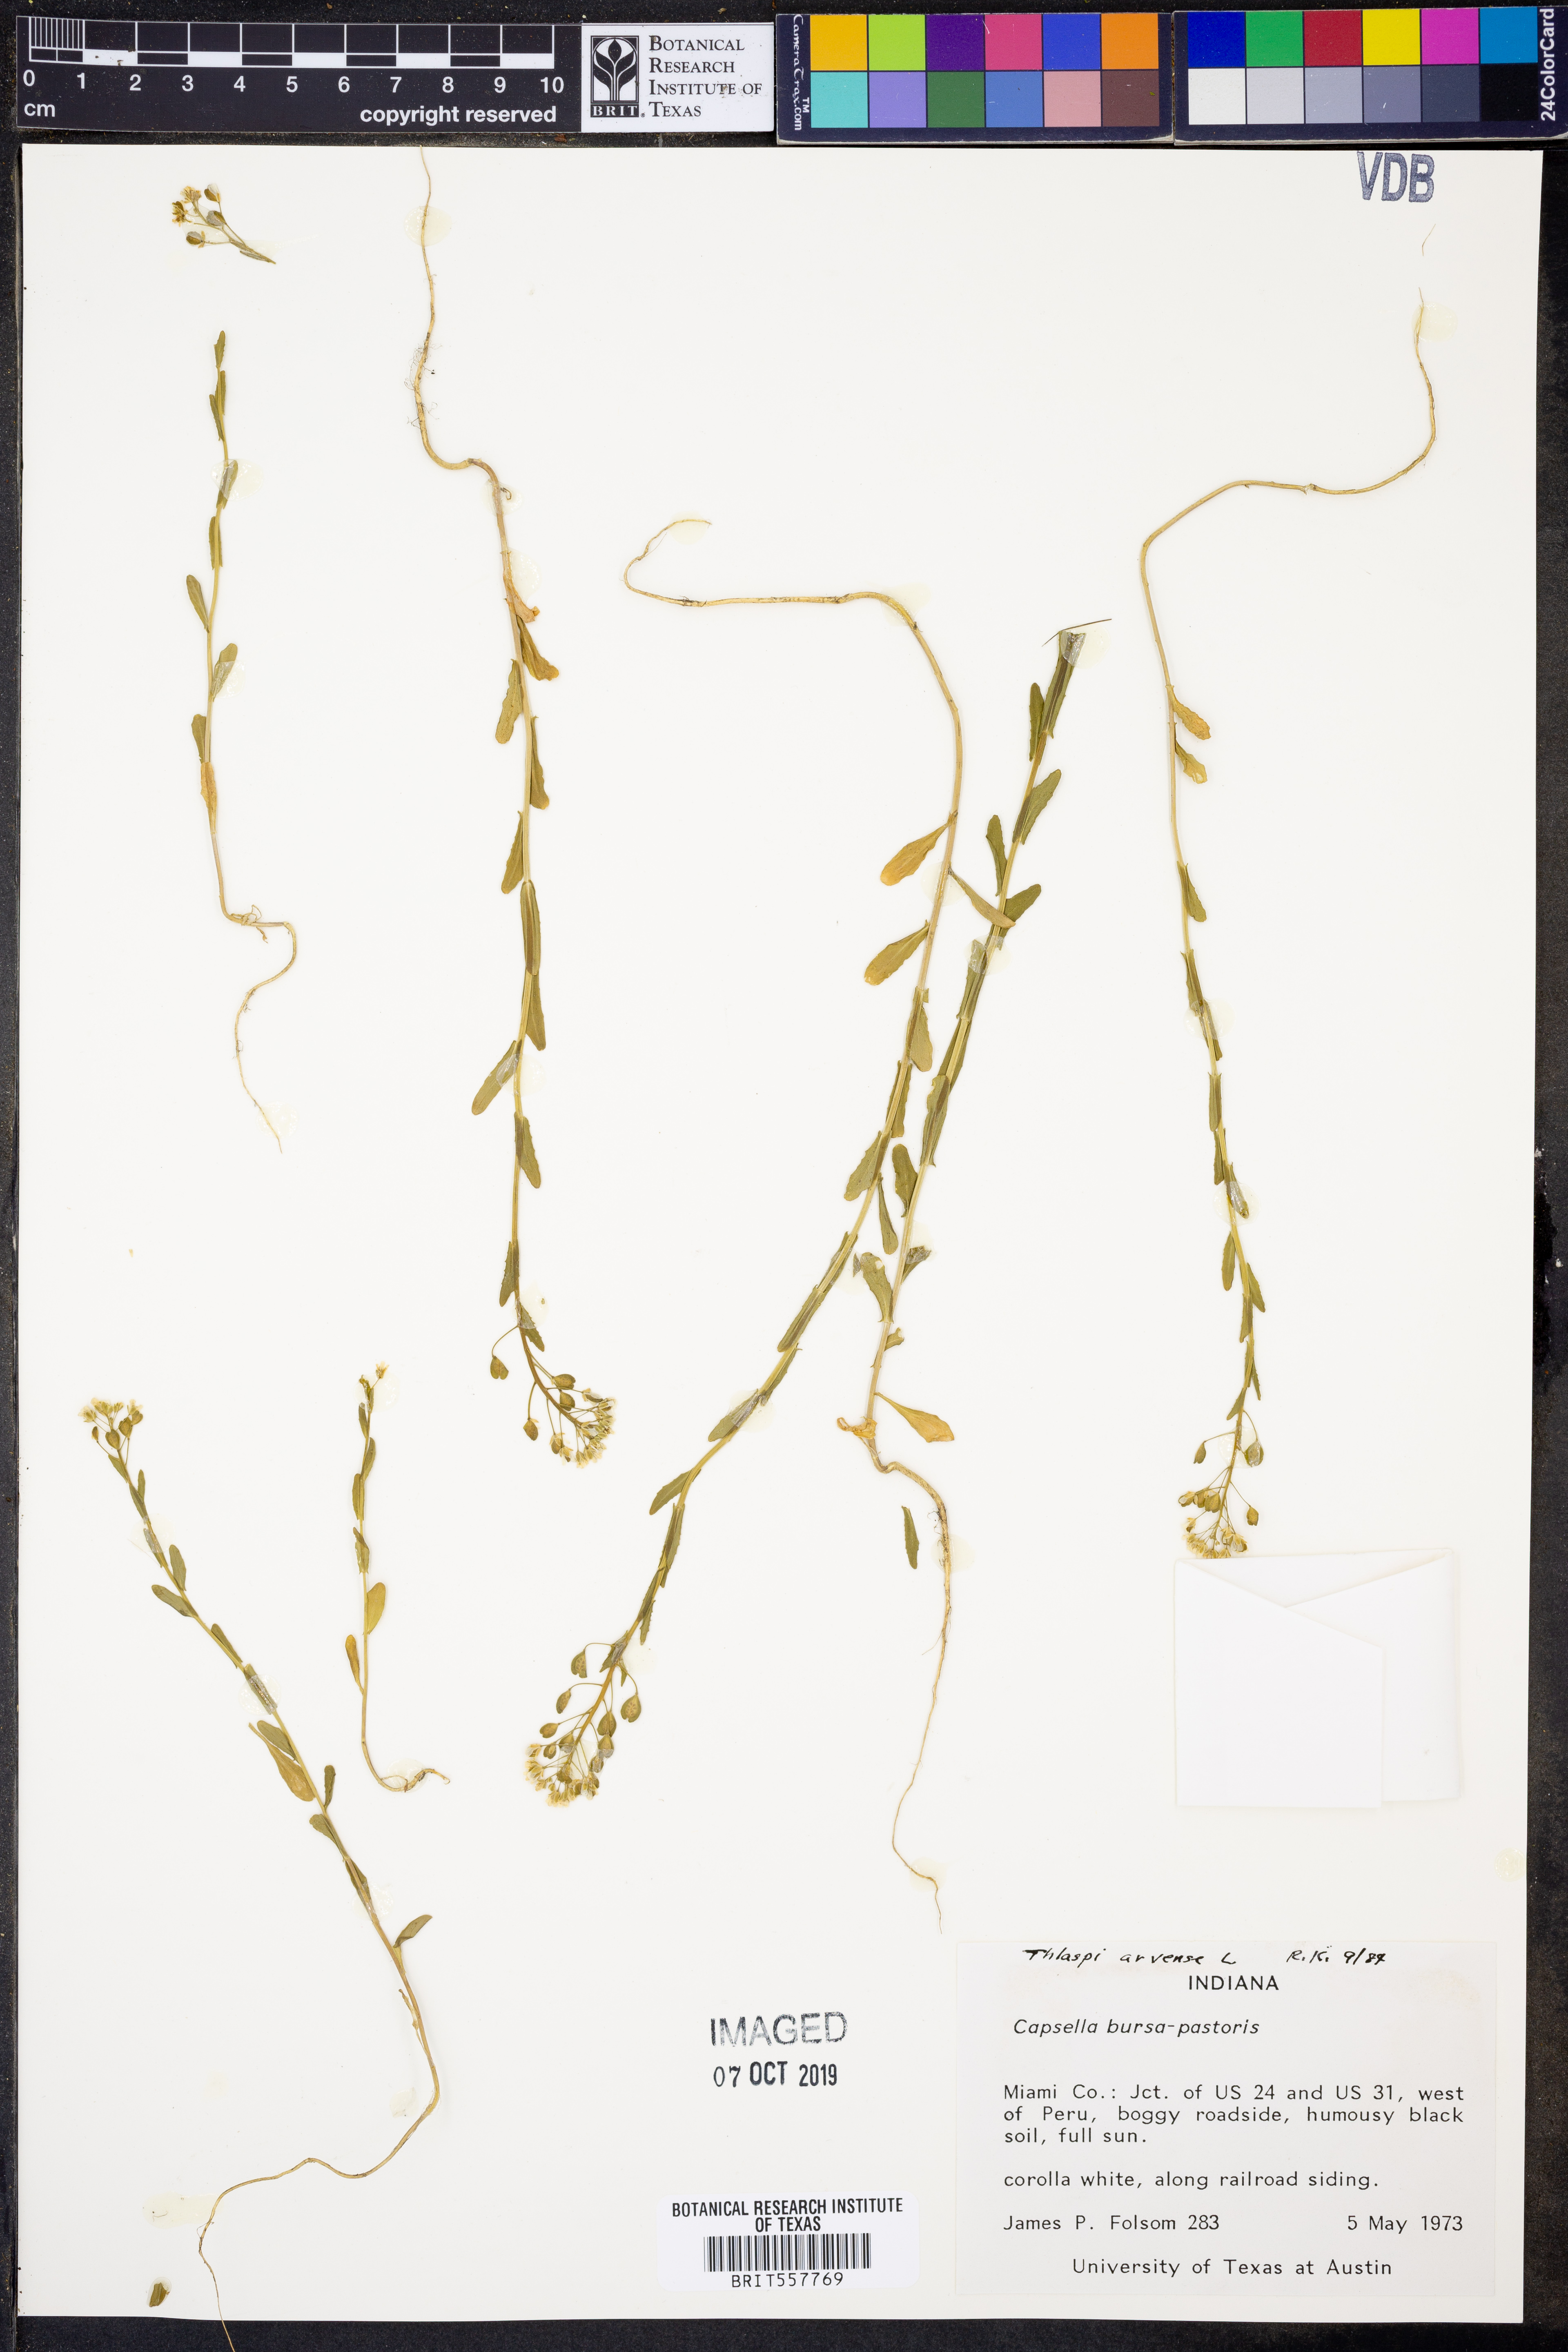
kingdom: Plantae
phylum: Tracheophyta
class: Magnoliopsida
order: Brassicales
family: Brassicaceae
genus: Thlaspi
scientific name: Thlaspi arvense
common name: Field pennycress
